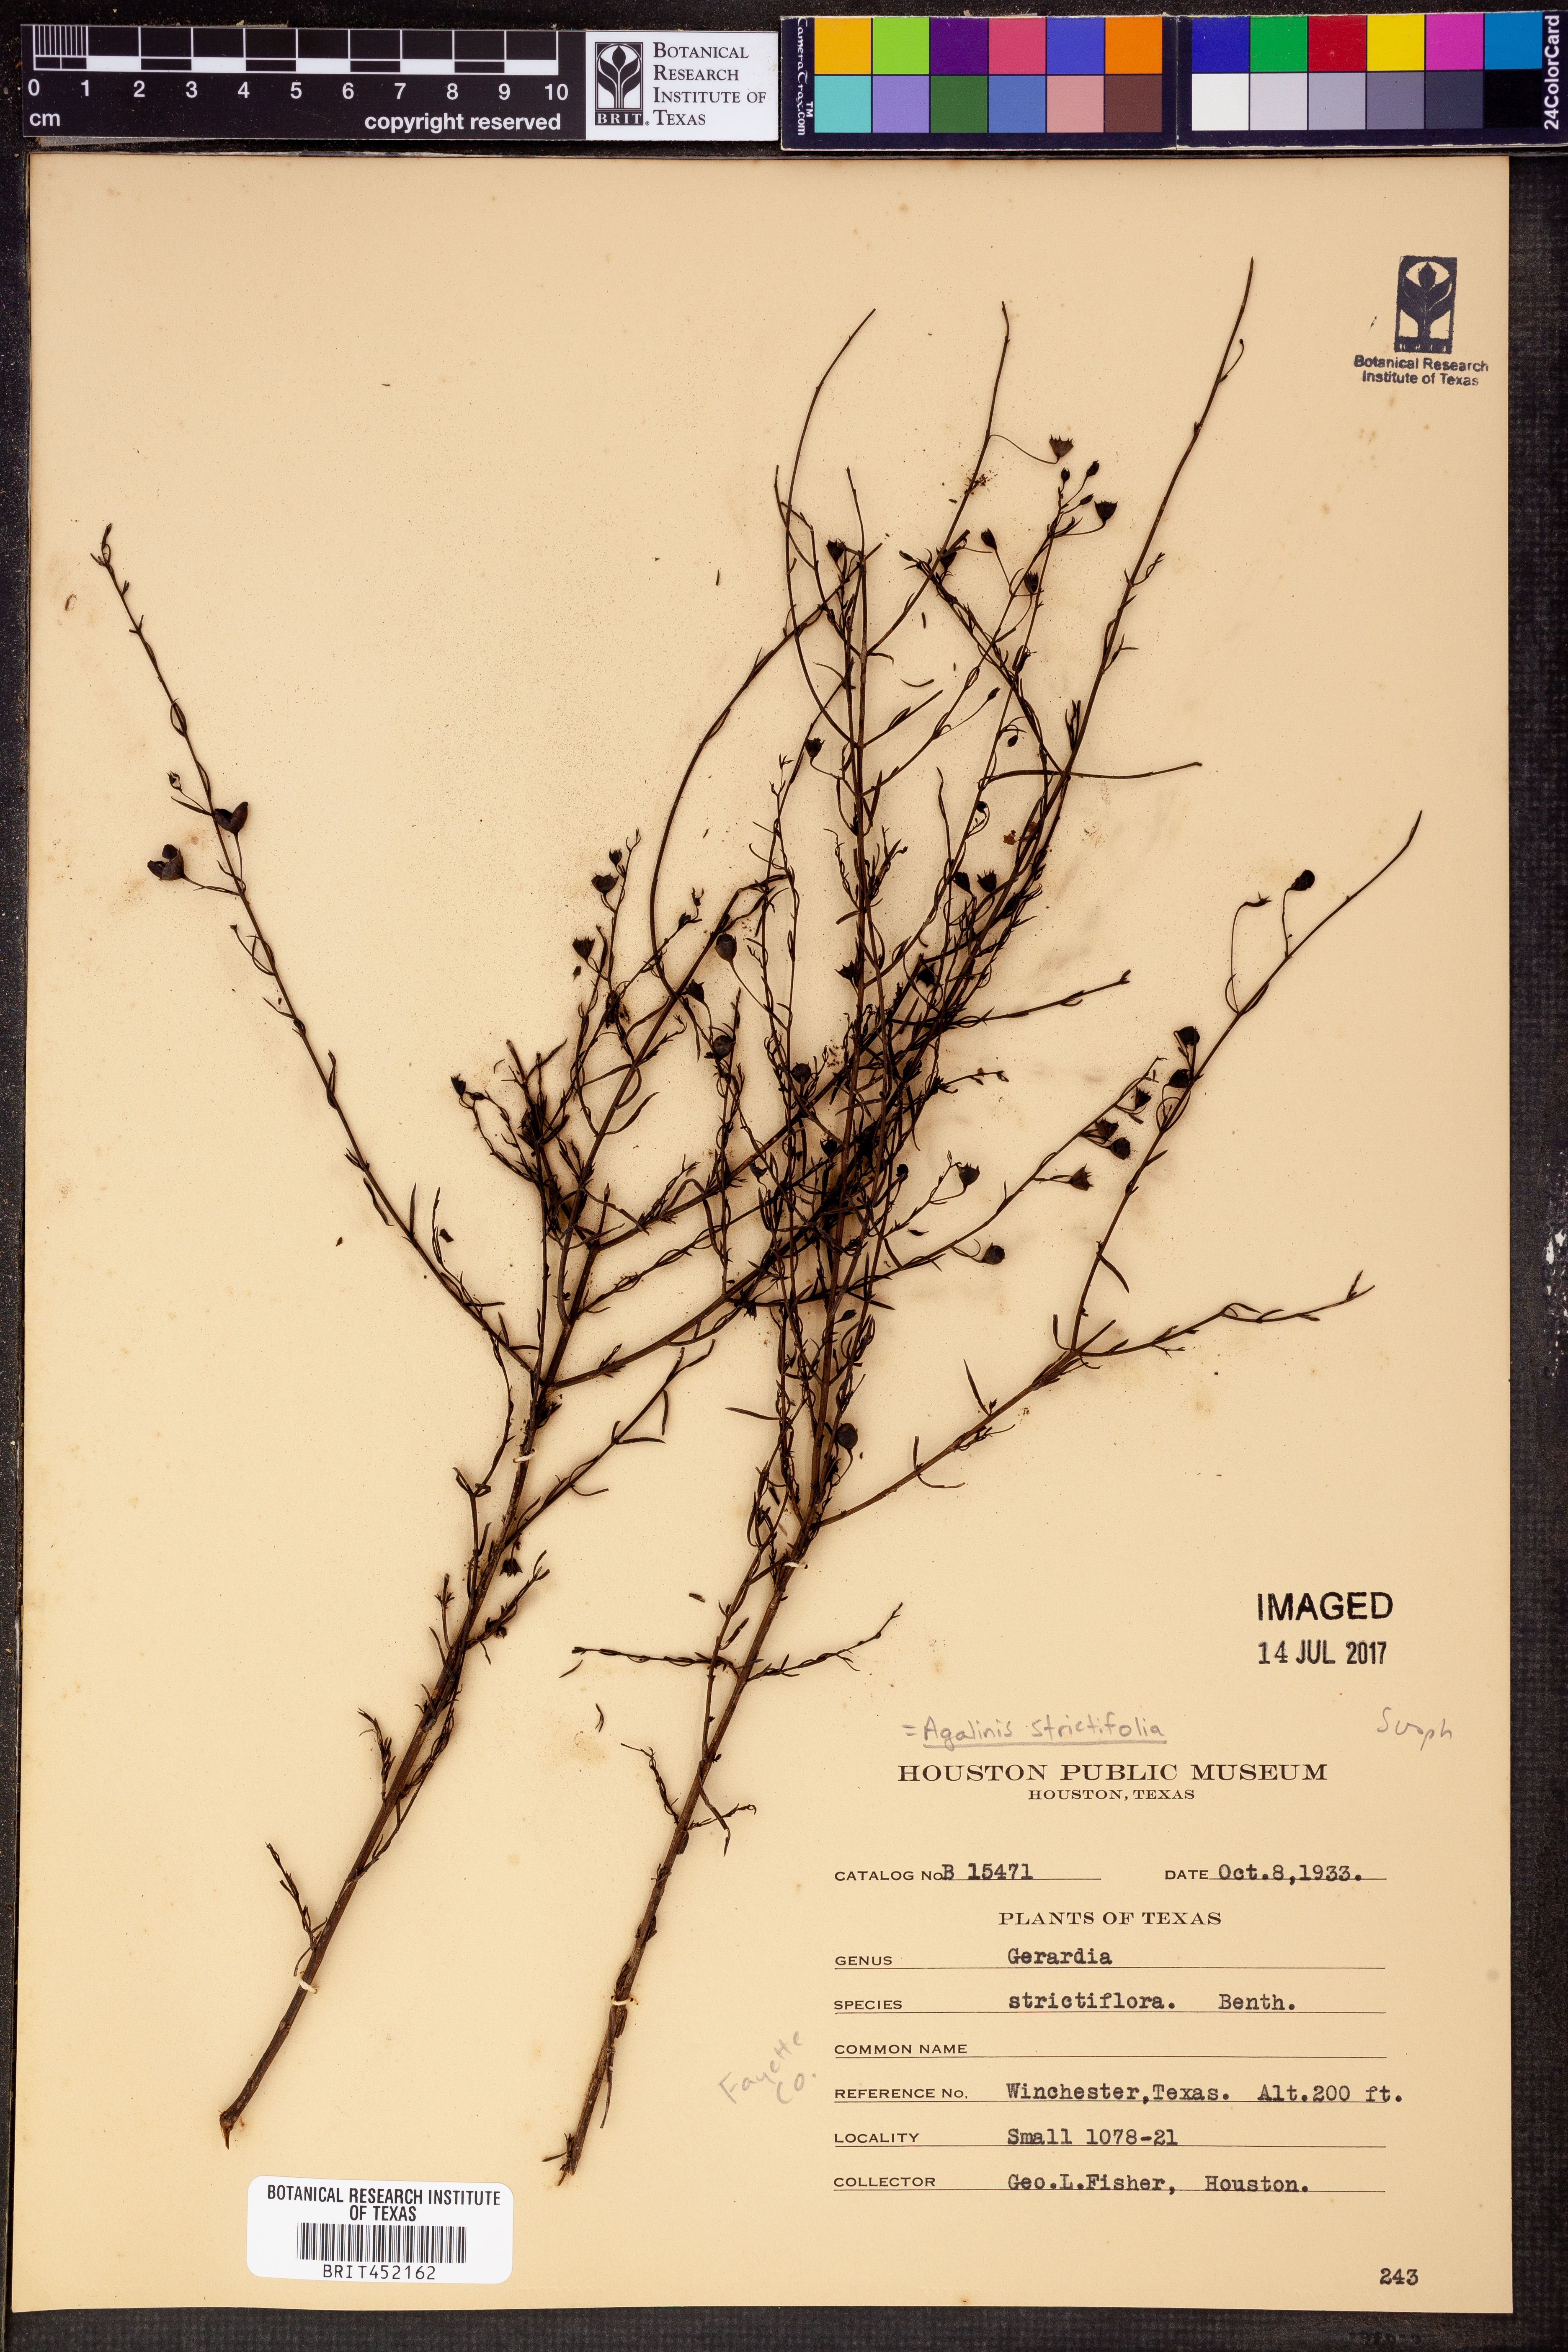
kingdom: Plantae
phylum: Tracheophyta
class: Magnoliopsida
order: Lamiales
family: Orobanchaceae
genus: Agalinis
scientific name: Agalinis strictifolia
